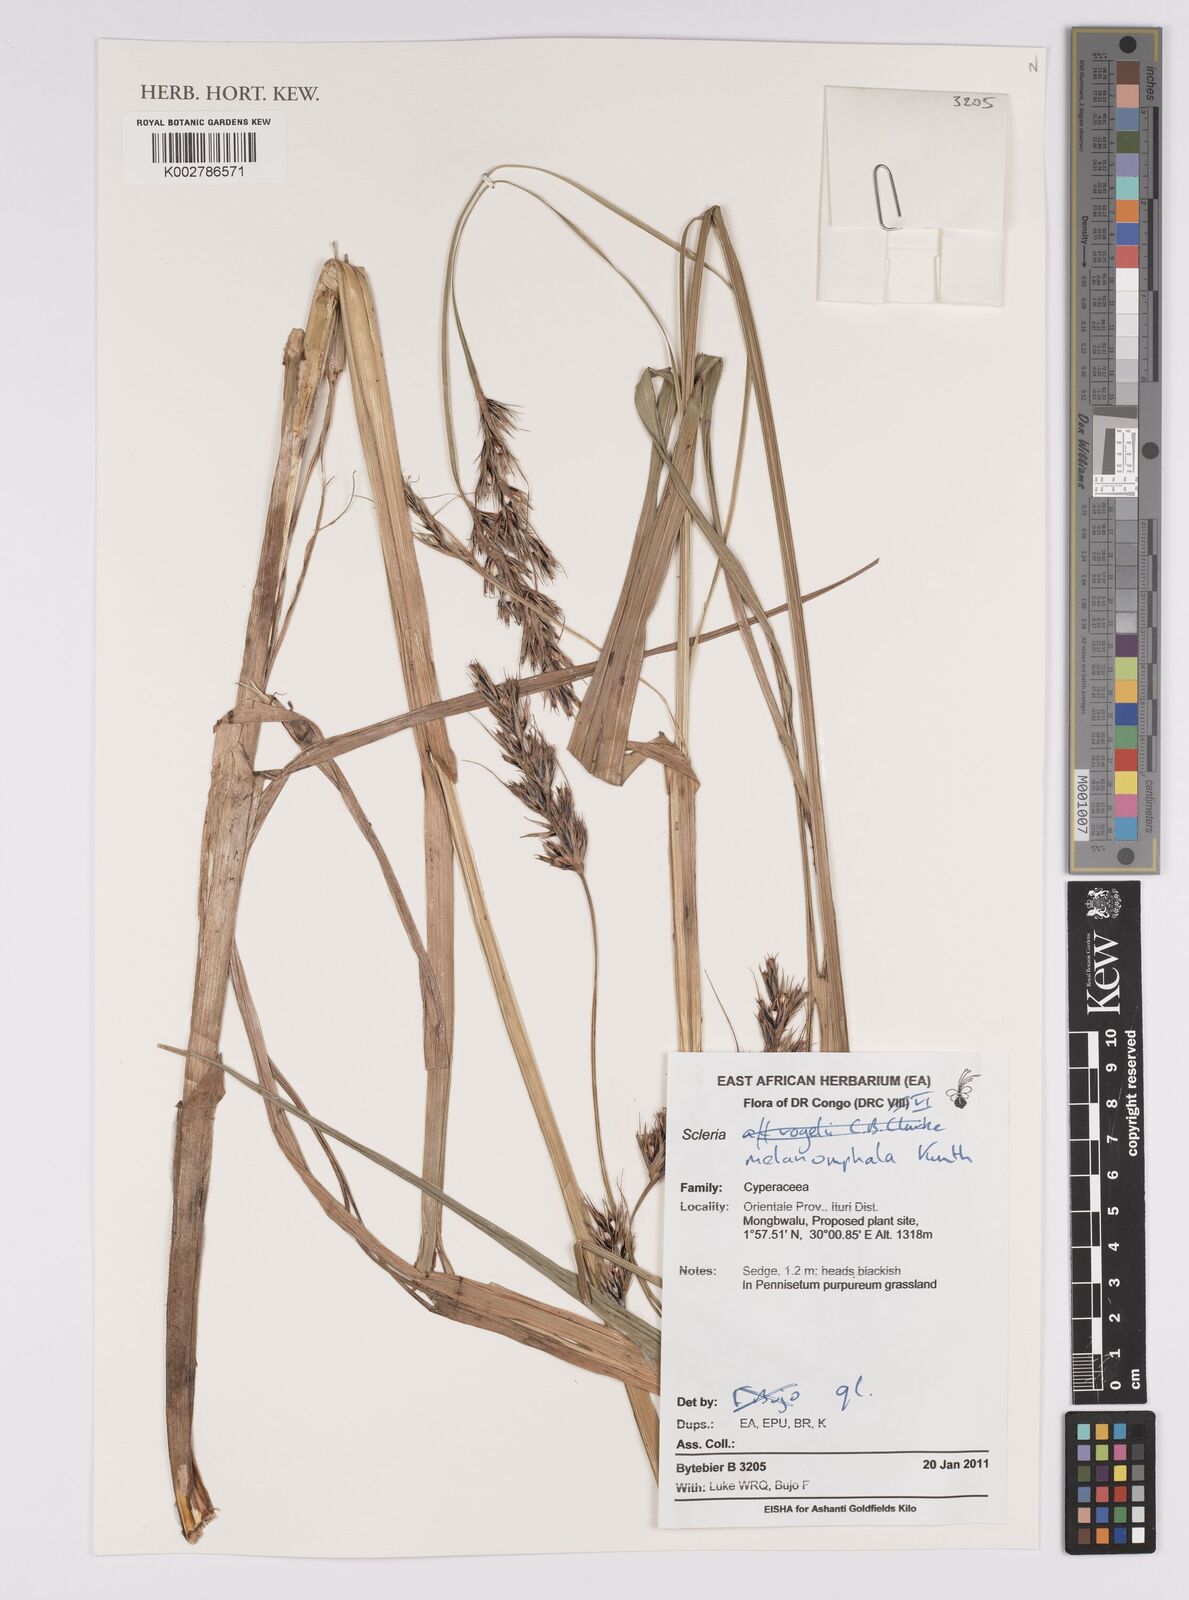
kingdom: Plantae
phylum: Tracheophyta
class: Liliopsida
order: Poales
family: Cyperaceae
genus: Scleria
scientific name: Scleria melanomphala
